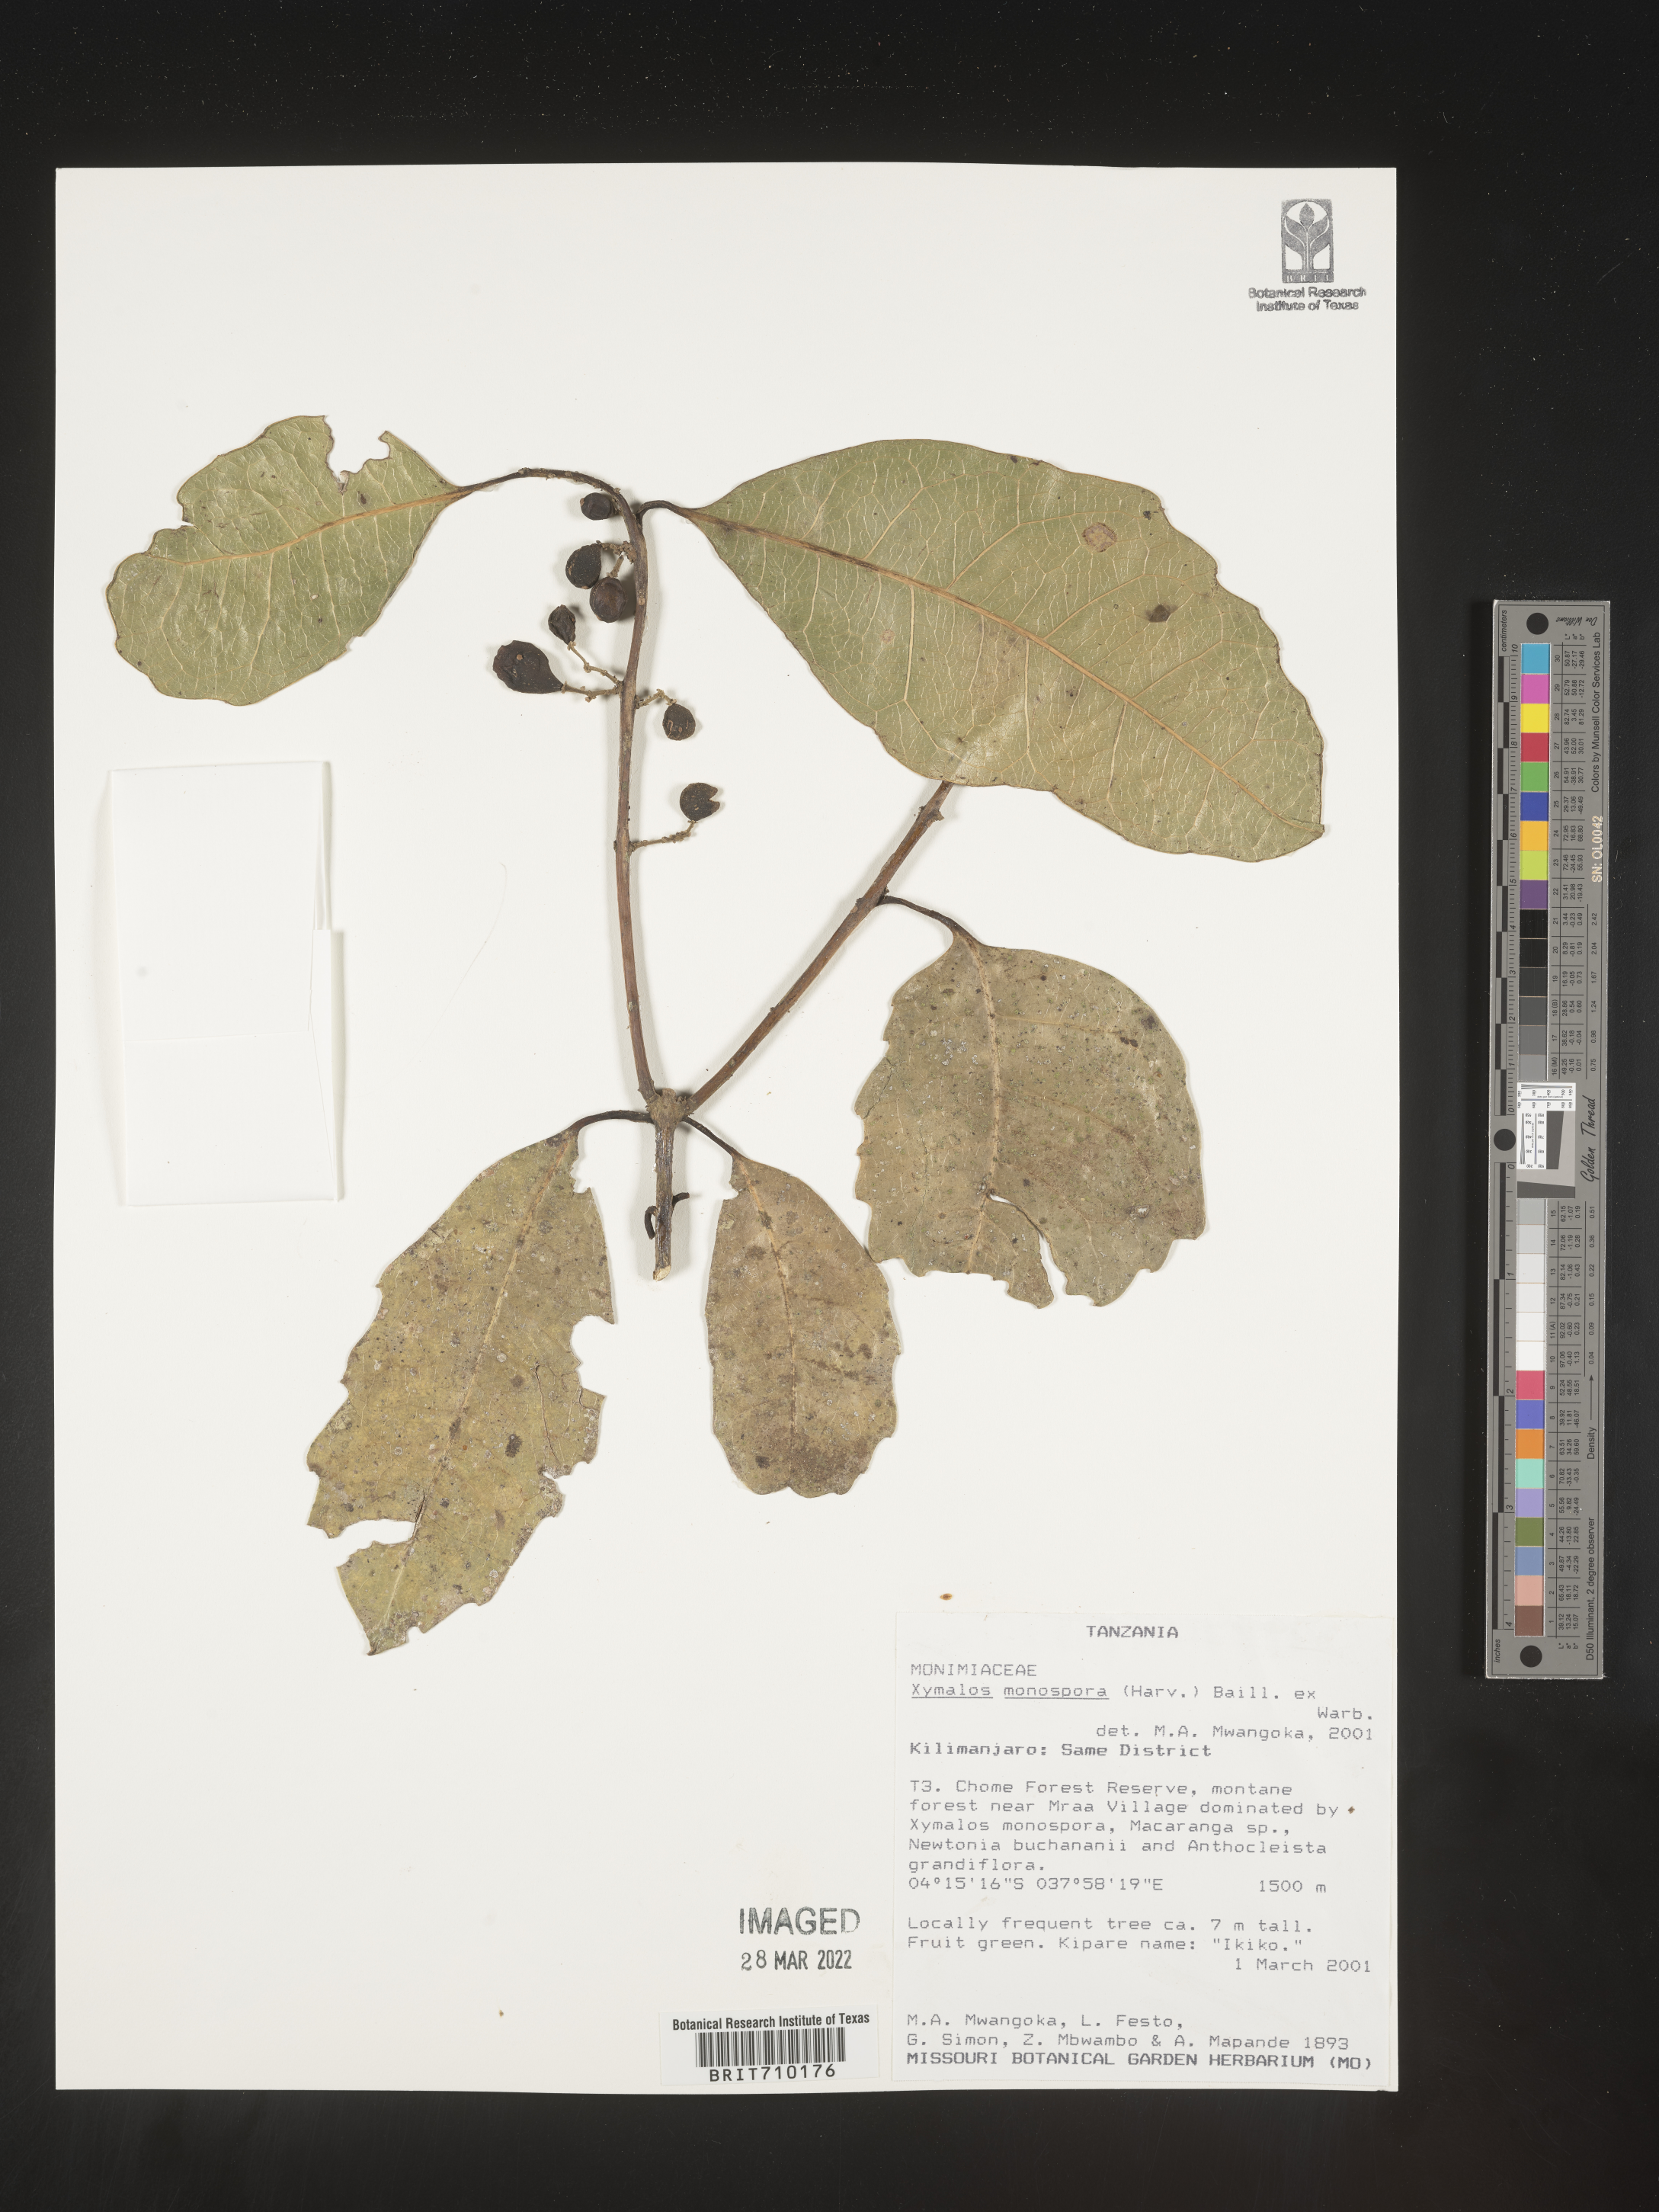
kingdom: Plantae
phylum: Tracheophyta
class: Magnoliopsida
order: Laurales
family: Monimiaceae
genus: Xymalos
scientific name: Xymalos
